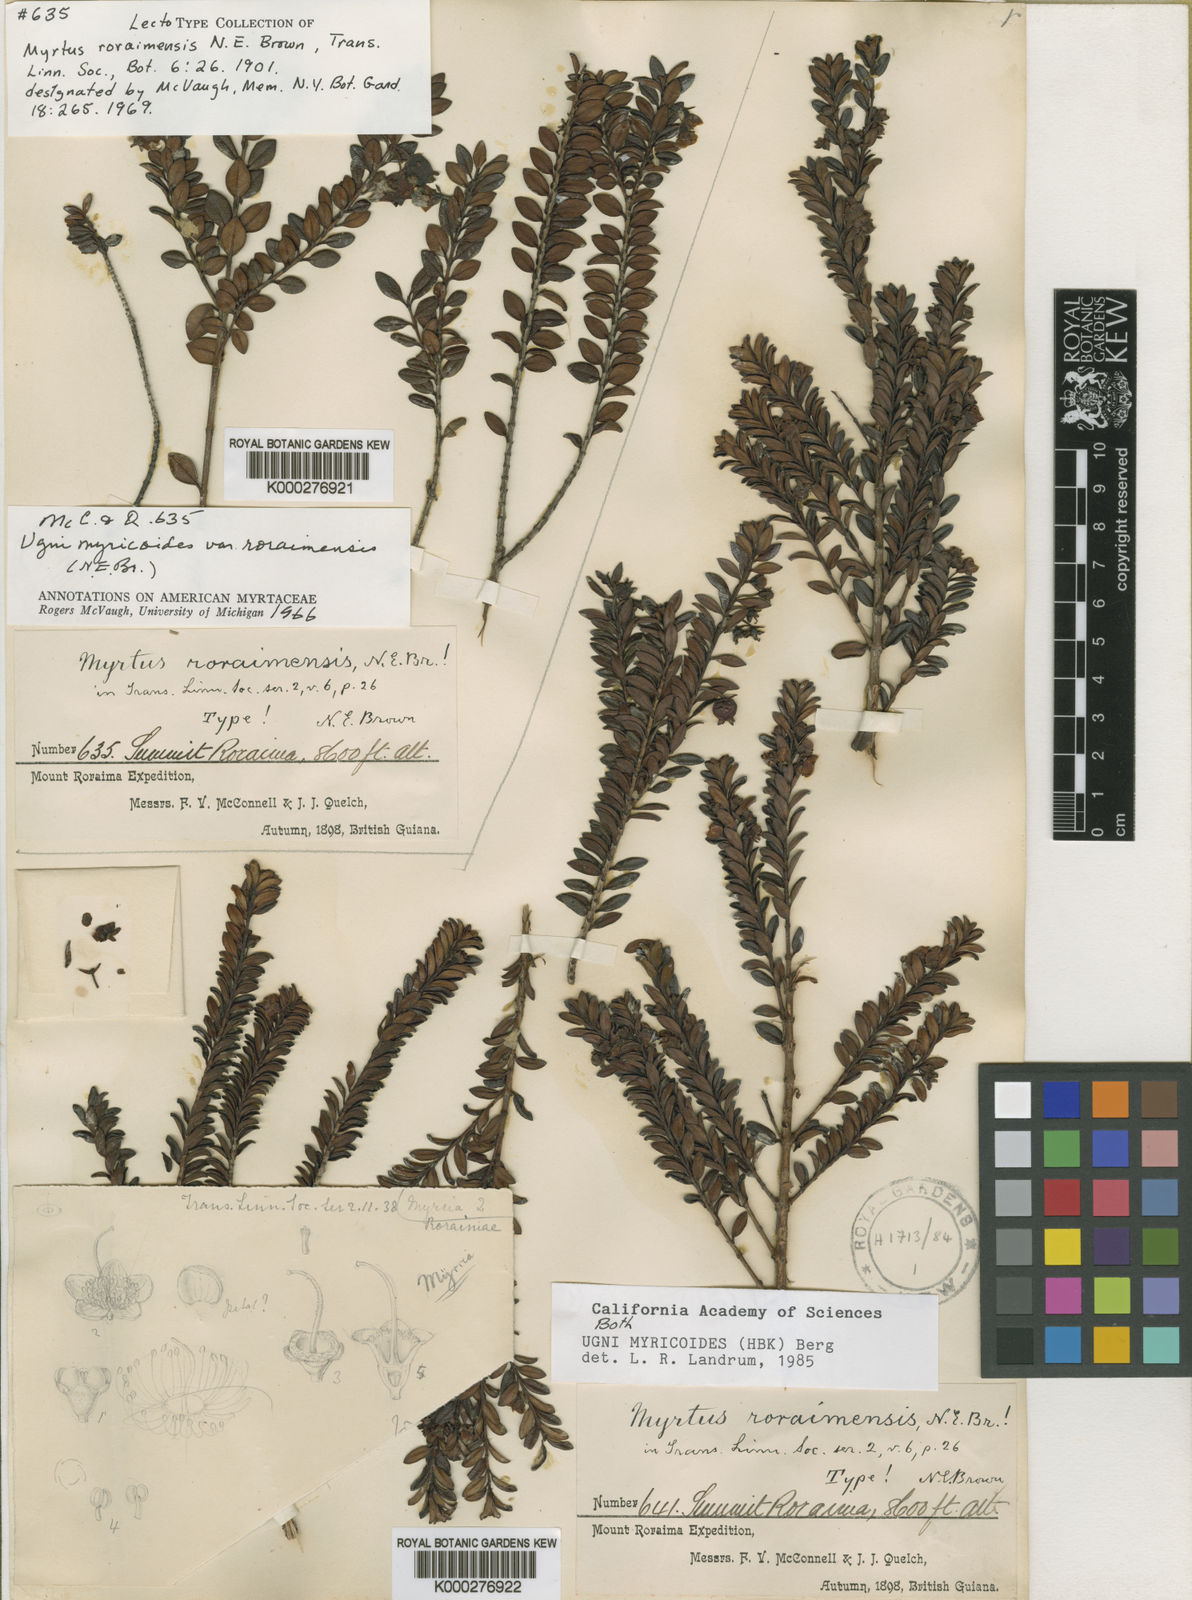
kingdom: Plantae
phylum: Tracheophyta
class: Magnoliopsida
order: Myrtales
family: Myrtaceae
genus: Ugni
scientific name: Ugni myricoides
